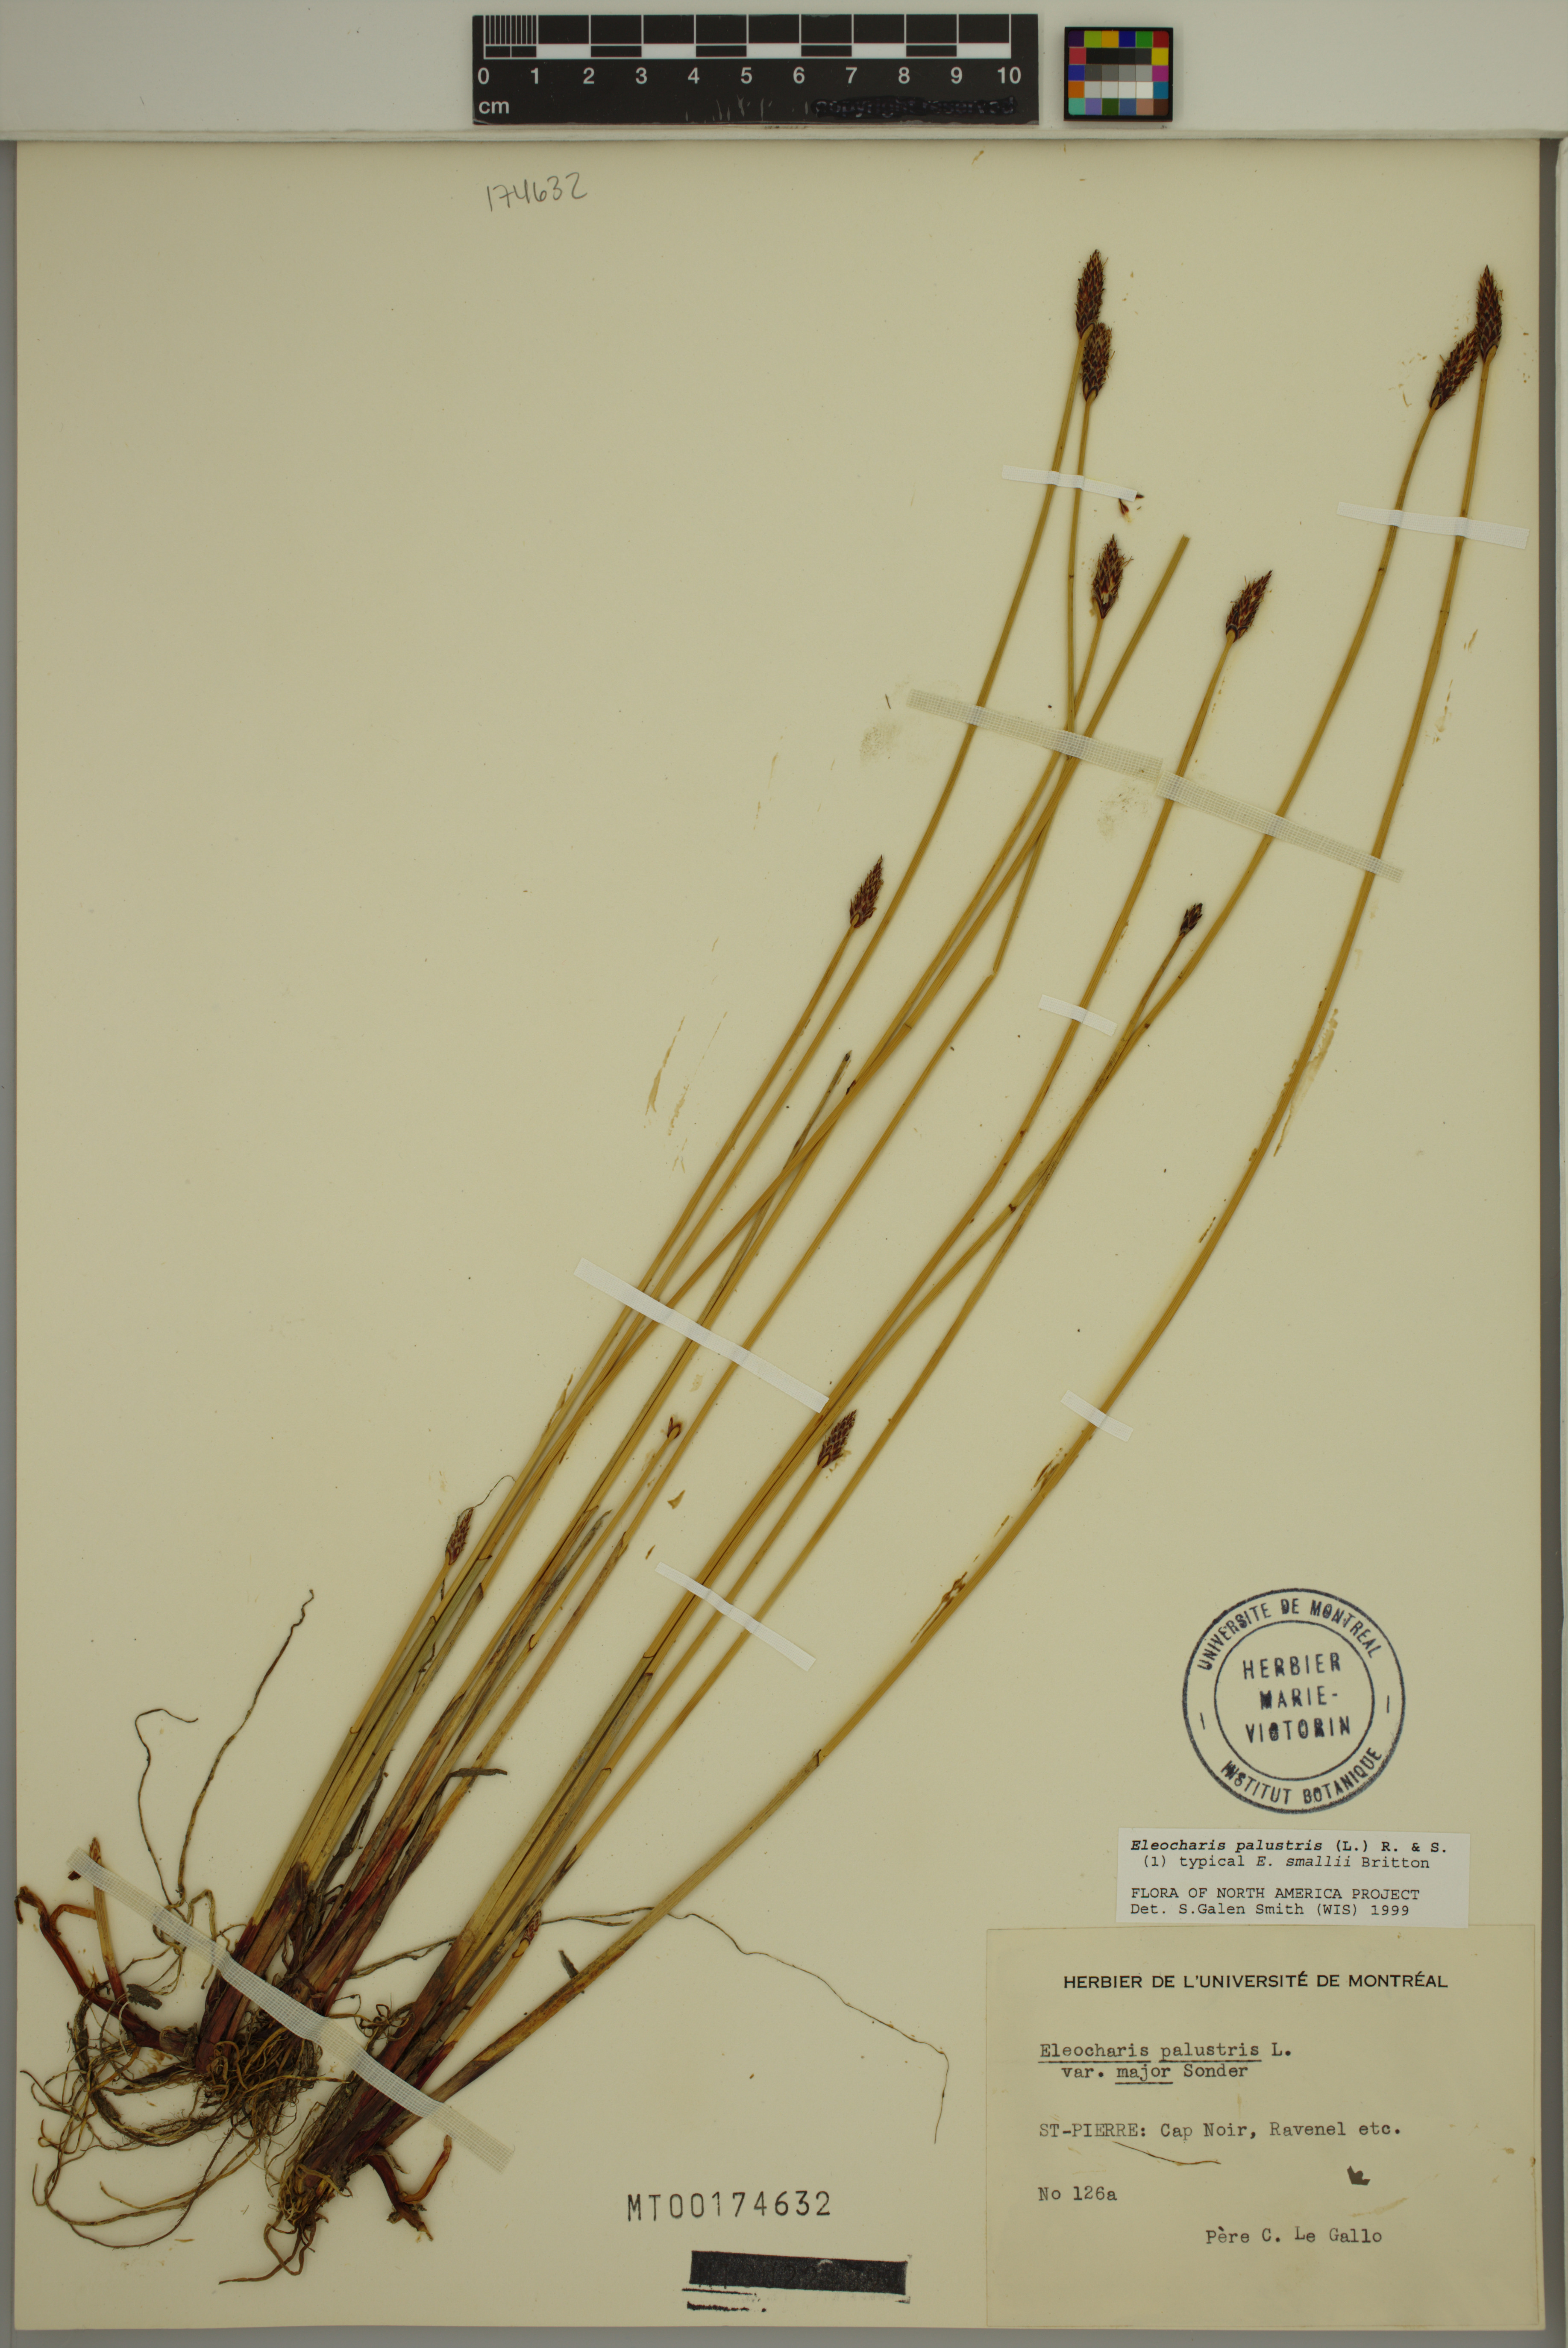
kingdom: Plantae
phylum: Tracheophyta
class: Liliopsida
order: Poales
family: Cyperaceae
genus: Eleocharis
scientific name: Eleocharis palustris
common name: Common spike-rush
